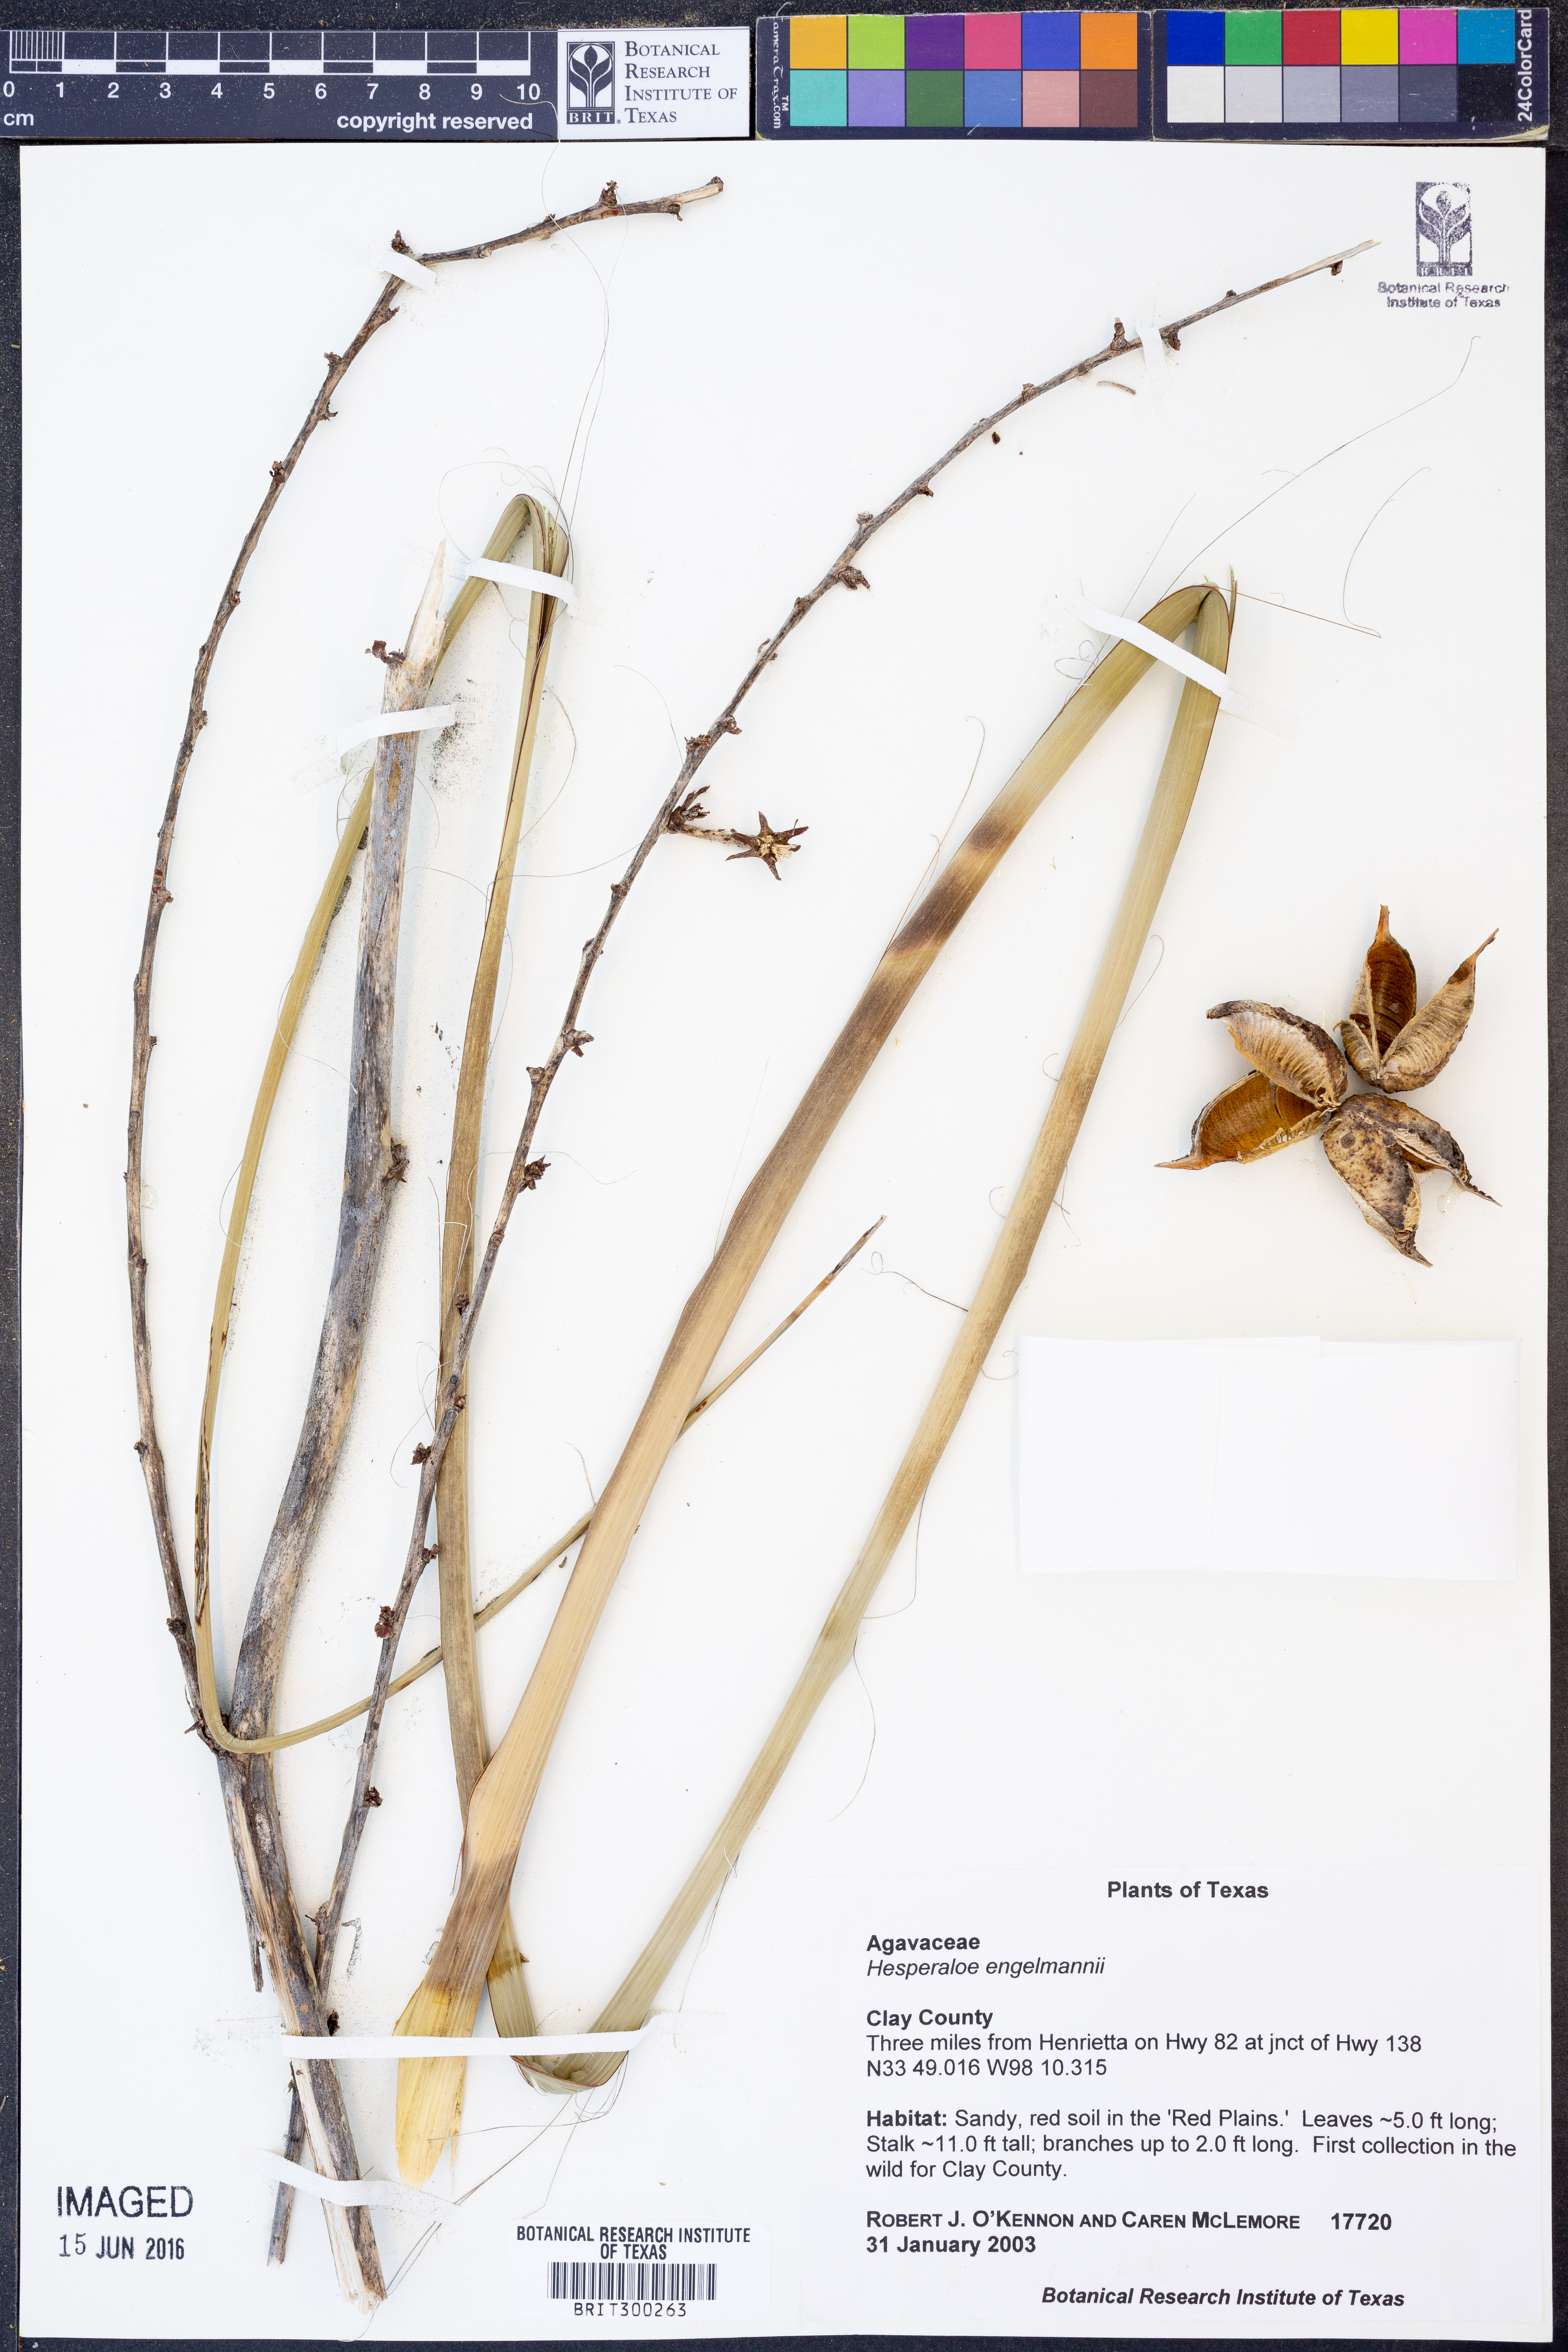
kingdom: Plantae
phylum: Tracheophyta
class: Liliopsida
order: Asparagales
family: Asparagaceae
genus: Hesperaloe
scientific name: Hesperaloe engelmannii
